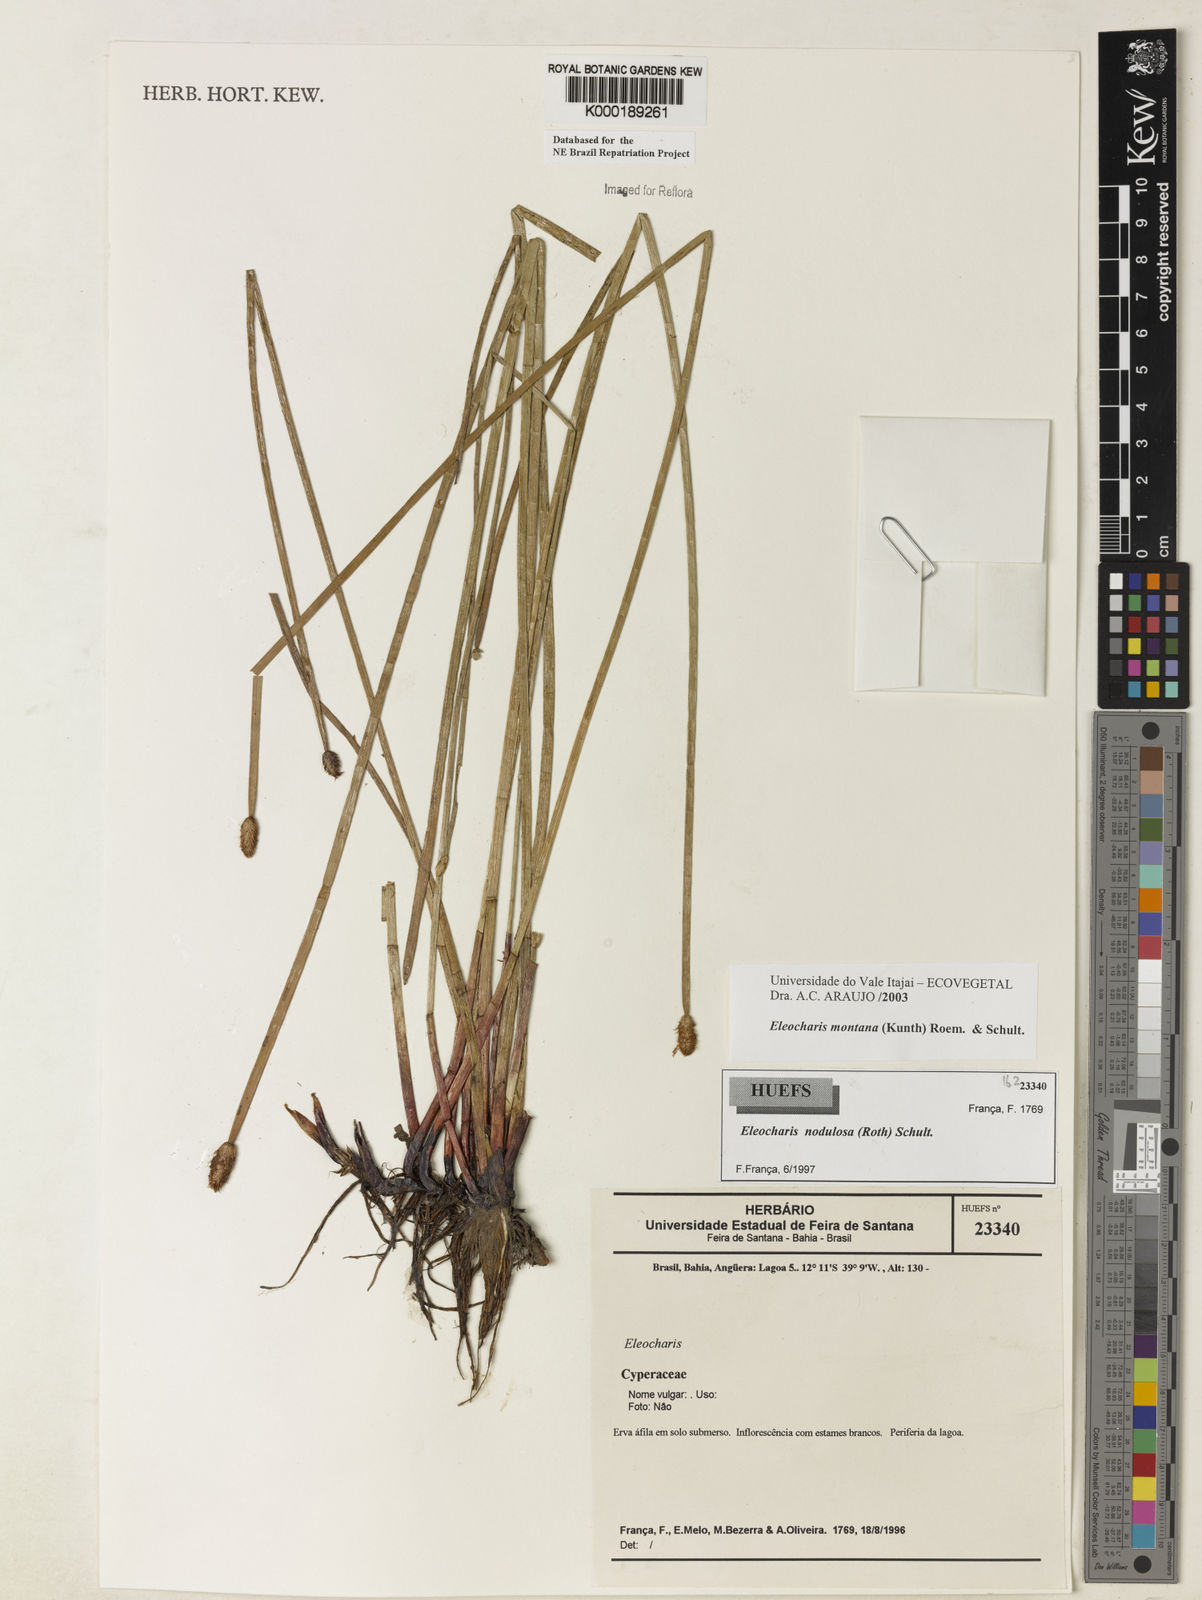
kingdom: Plantae
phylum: Tracheophyta
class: Liliopsida
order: Poales
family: Cyperaceae
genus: Eleocharis
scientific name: Eleocharis montana
